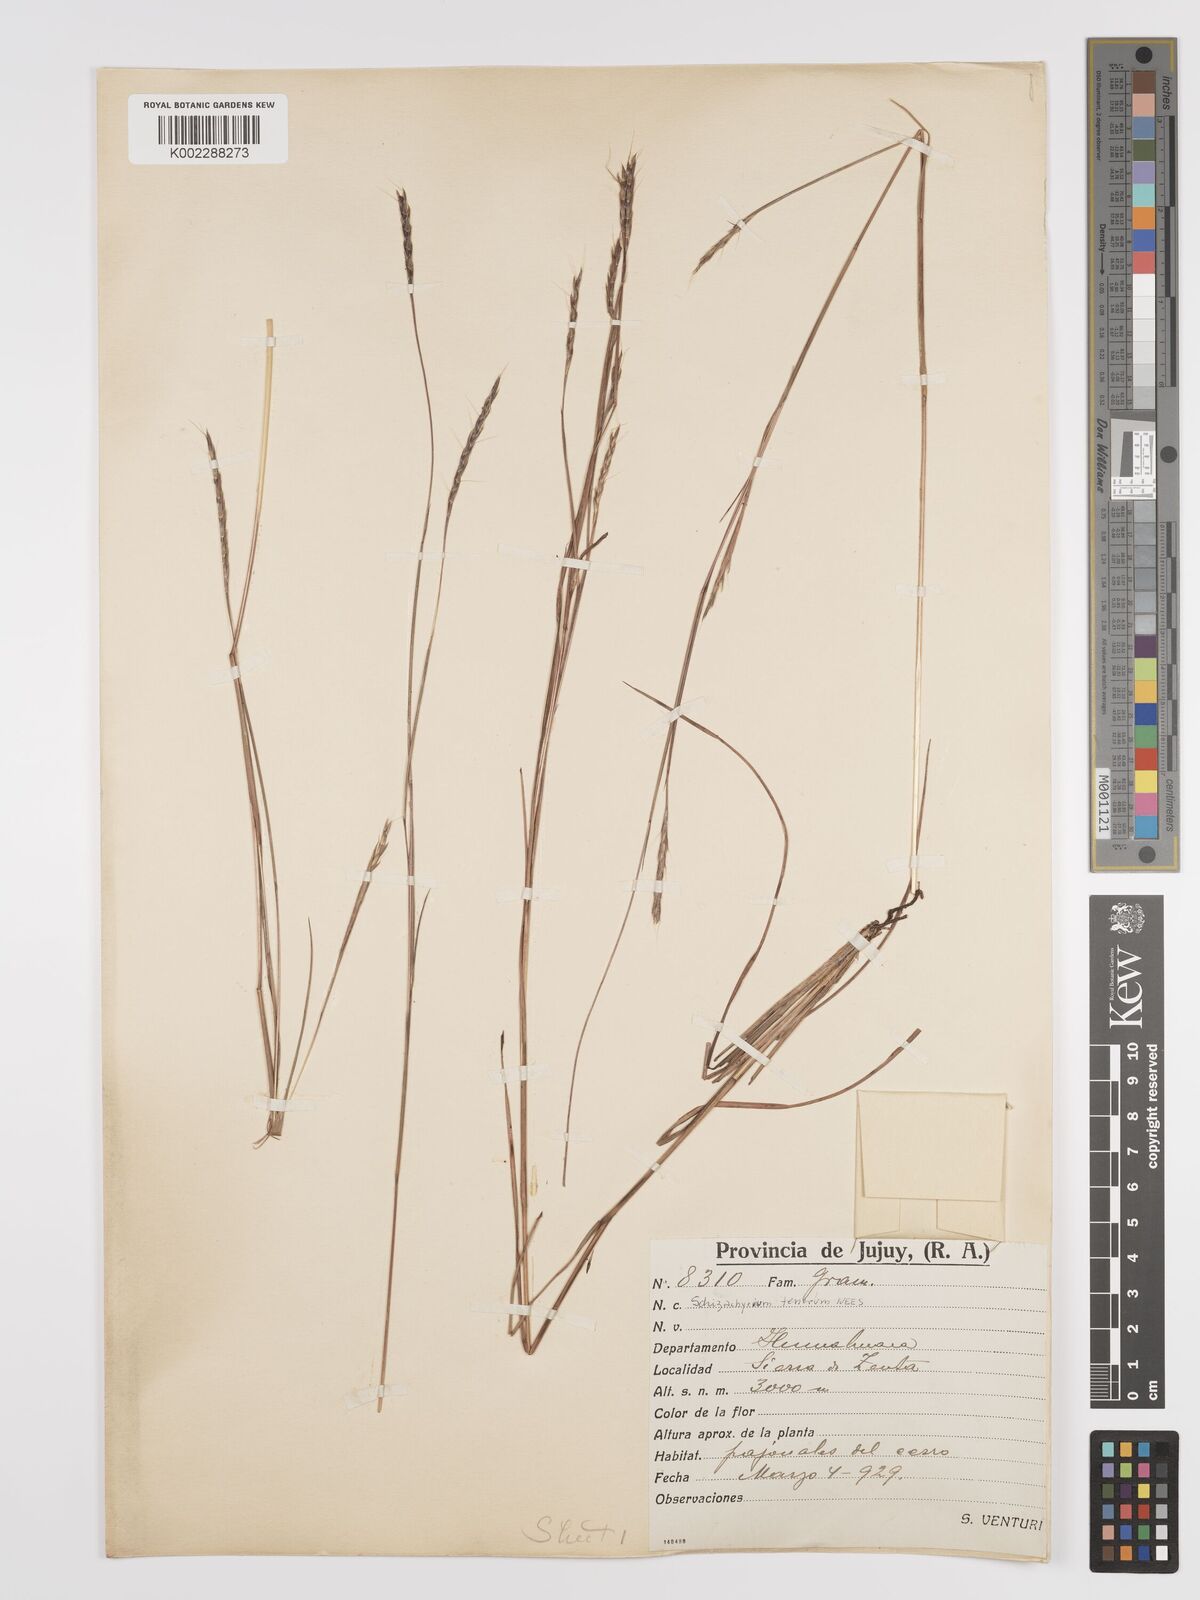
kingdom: Plantae
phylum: Tracheophyta
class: Liliopsida
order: Poales
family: Poaceae
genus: Andropogon
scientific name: Andropogon tener
